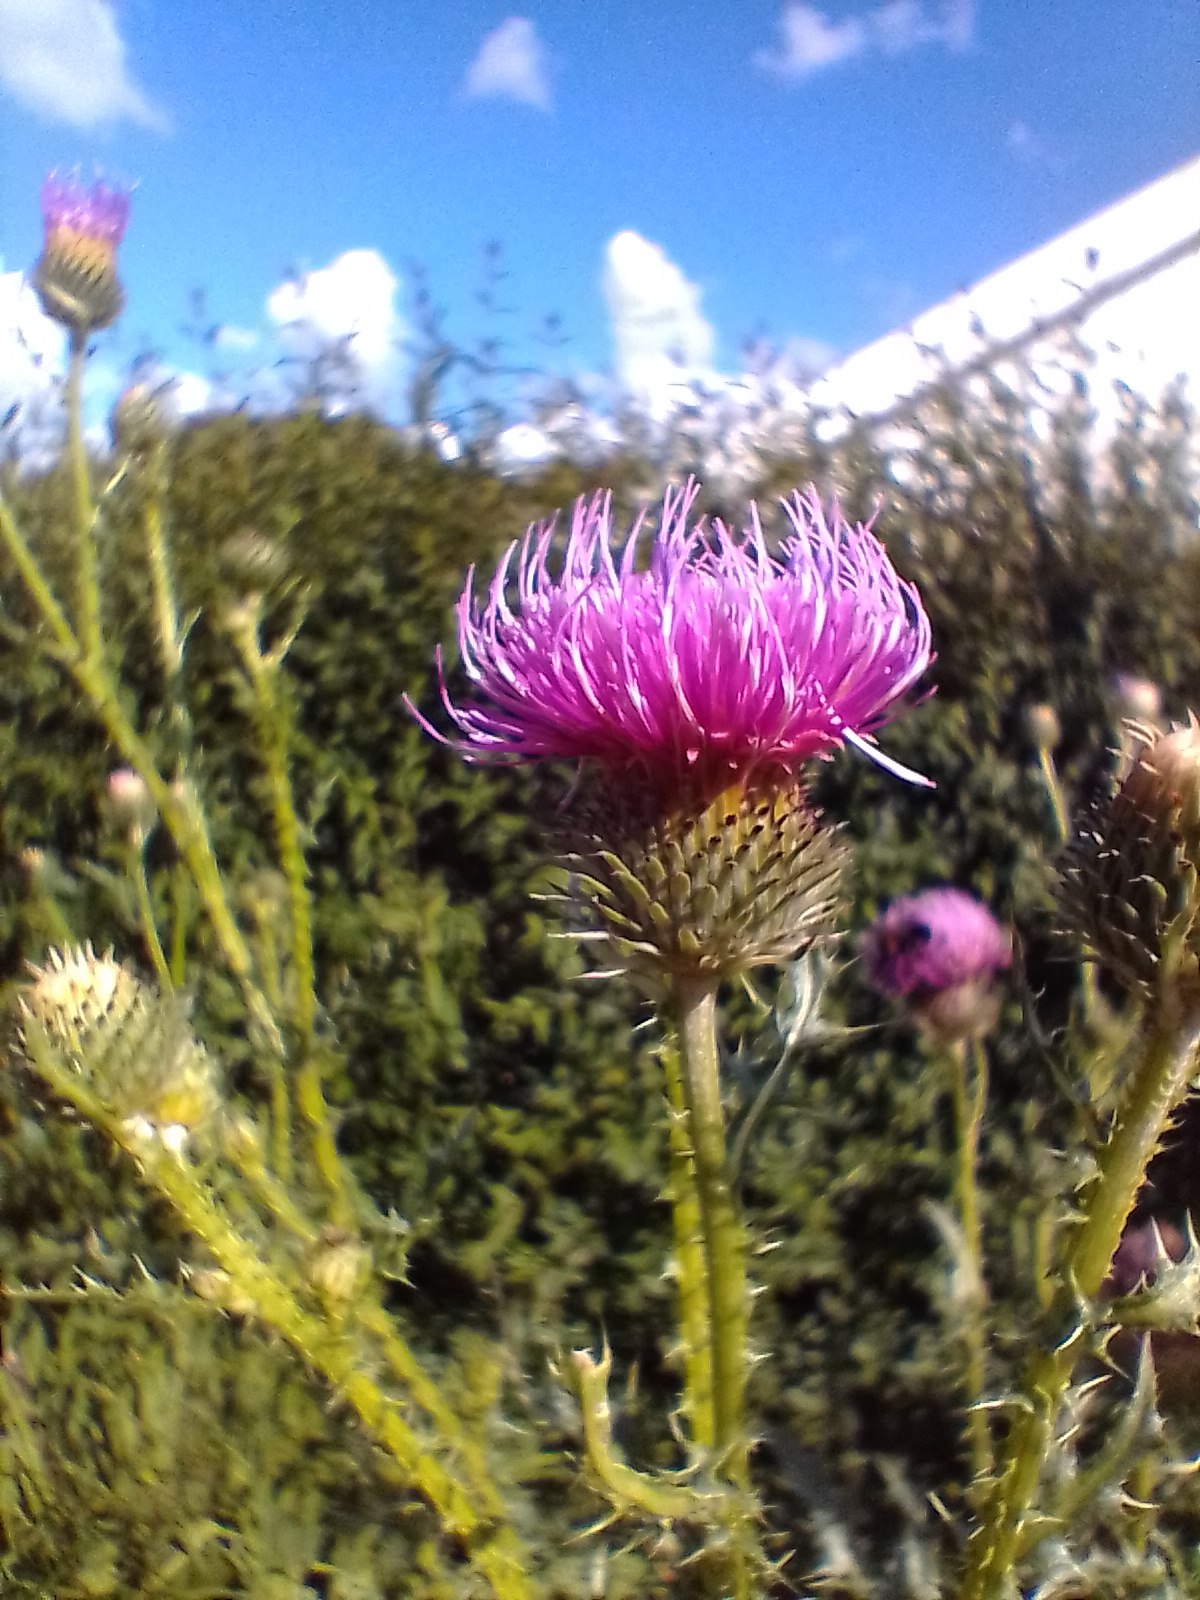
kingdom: Plantae
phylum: Tracheophyta
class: Magnoliopsida
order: Asterales
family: Asteraceae
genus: Cirsium
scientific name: Cirsium vulgare
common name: Horse-tidsel
